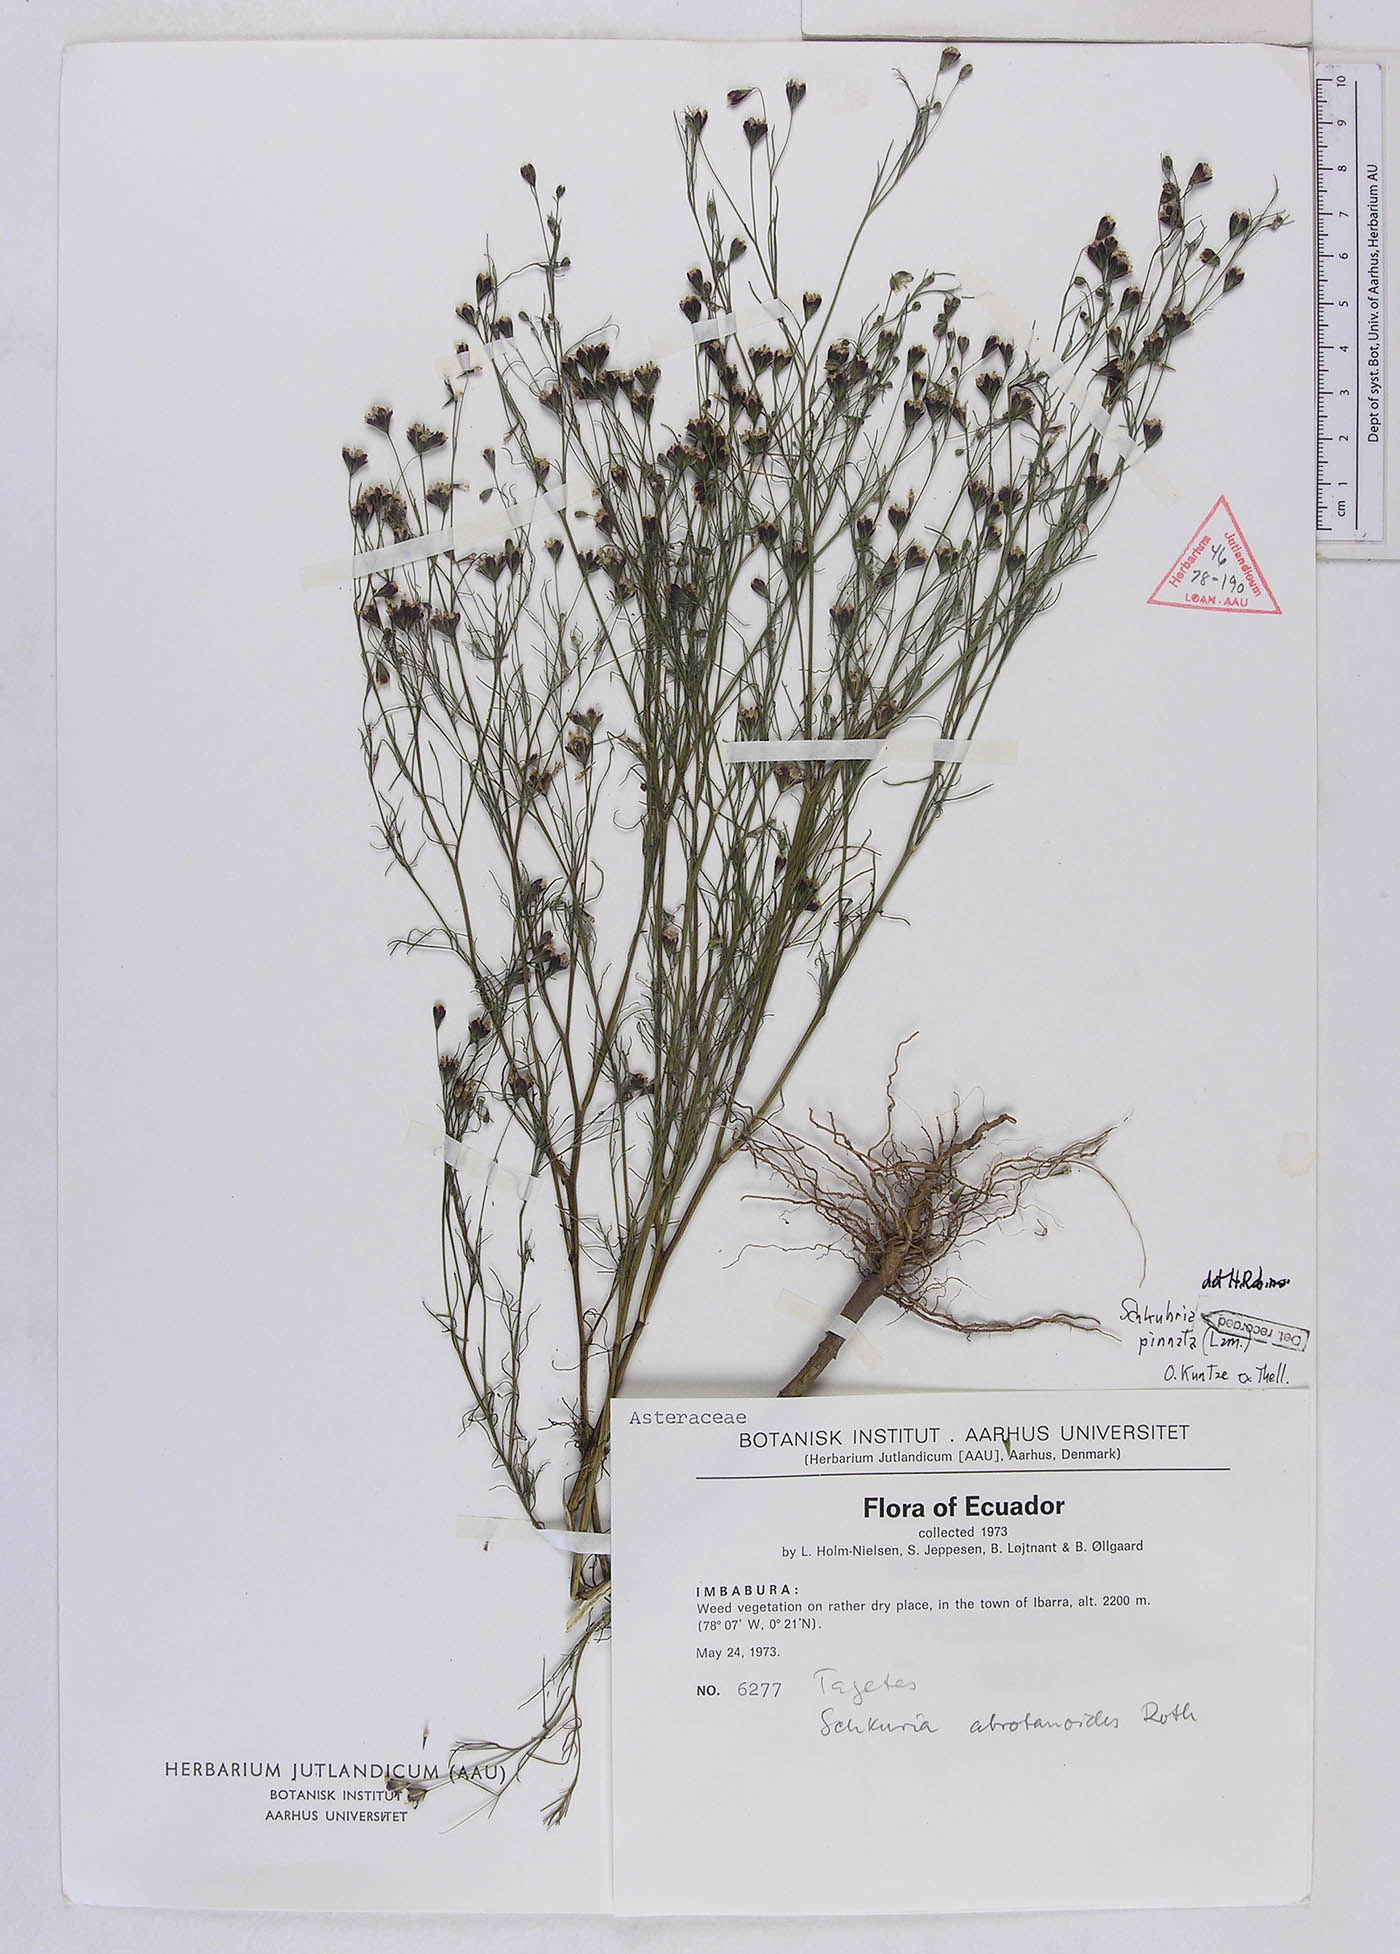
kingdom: Plantae
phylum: Tracheophyta
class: Magnoliopsida
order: Asterales
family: Asteraceae
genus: Schkuhria
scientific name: Schkuhria pinnata
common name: Dwarf marigold
